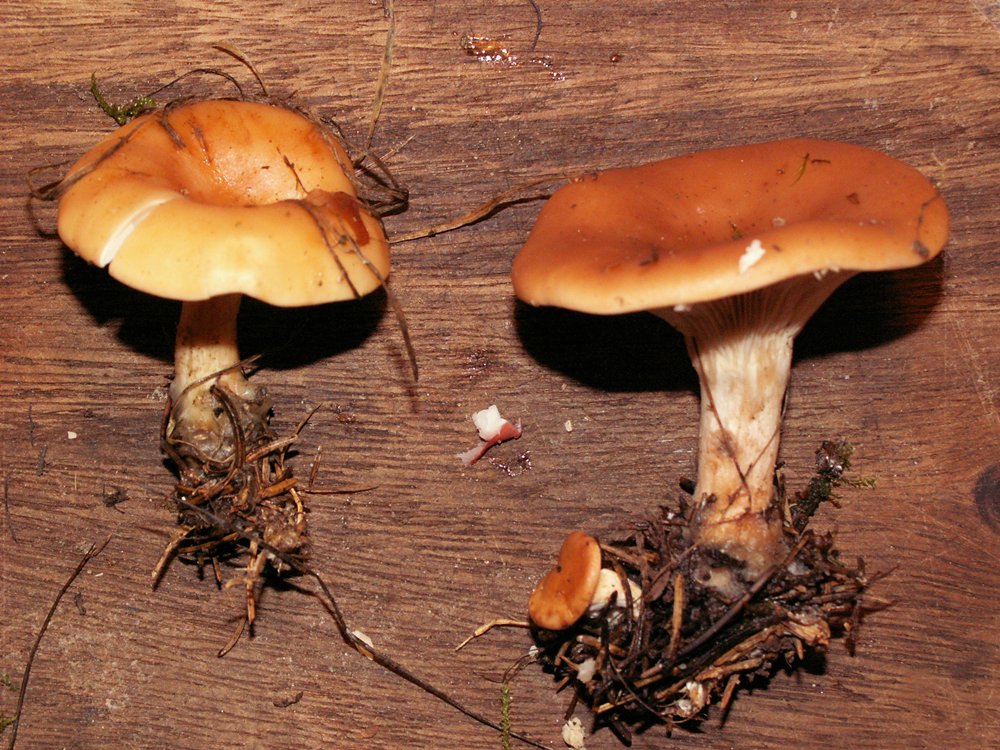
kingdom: Fungi
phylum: Basidiomycota
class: Agaricomycetes
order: Agaricales
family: Tricholomataceae
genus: Paralepista
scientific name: Paralepista flaccida
